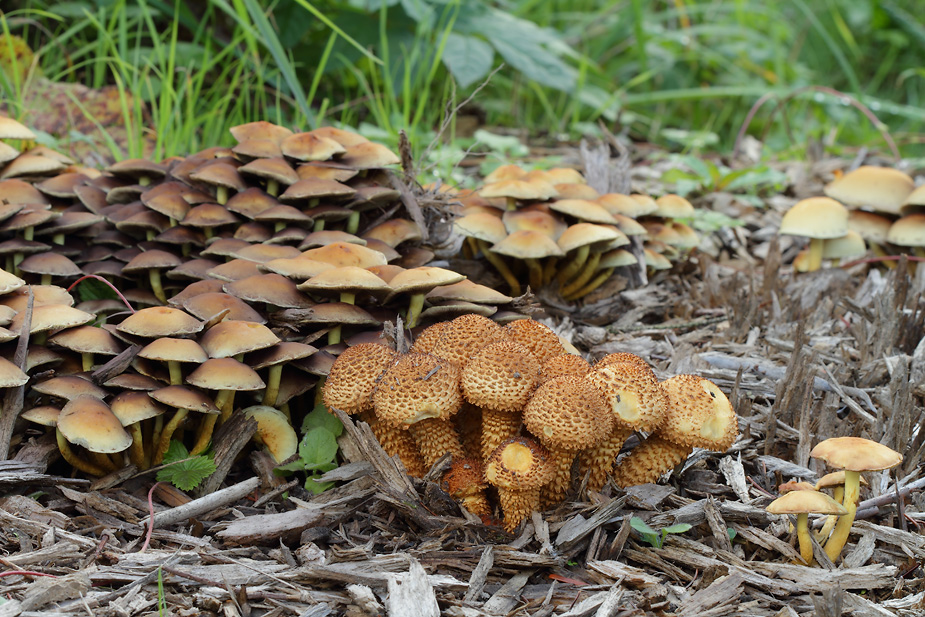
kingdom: Fungi
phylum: Basidiomycota
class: Agaricomycetes
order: Agaricales
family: Strophariaceae
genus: Pholiota
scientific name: Pholiota squarrosa
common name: krumskællet skælhat
